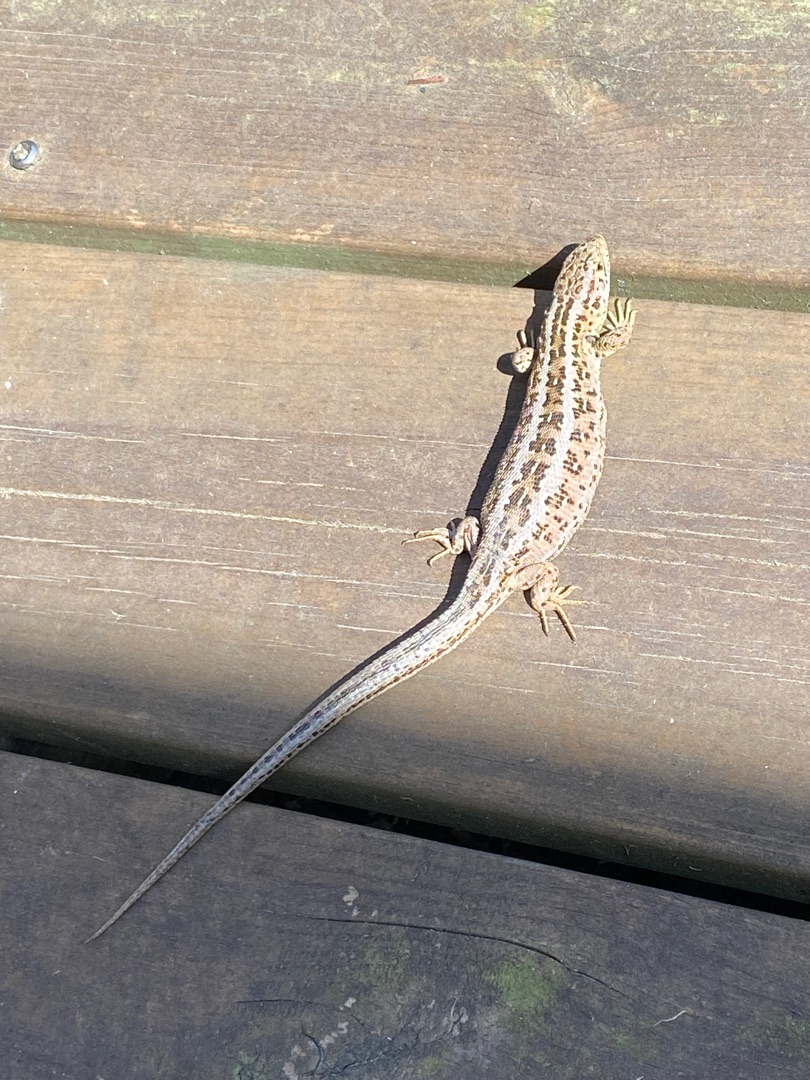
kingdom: Animalia
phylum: Chordata
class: Squamata
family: Lacertidae
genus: Lacerta
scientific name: Lacerta agilis
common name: Markfirben
